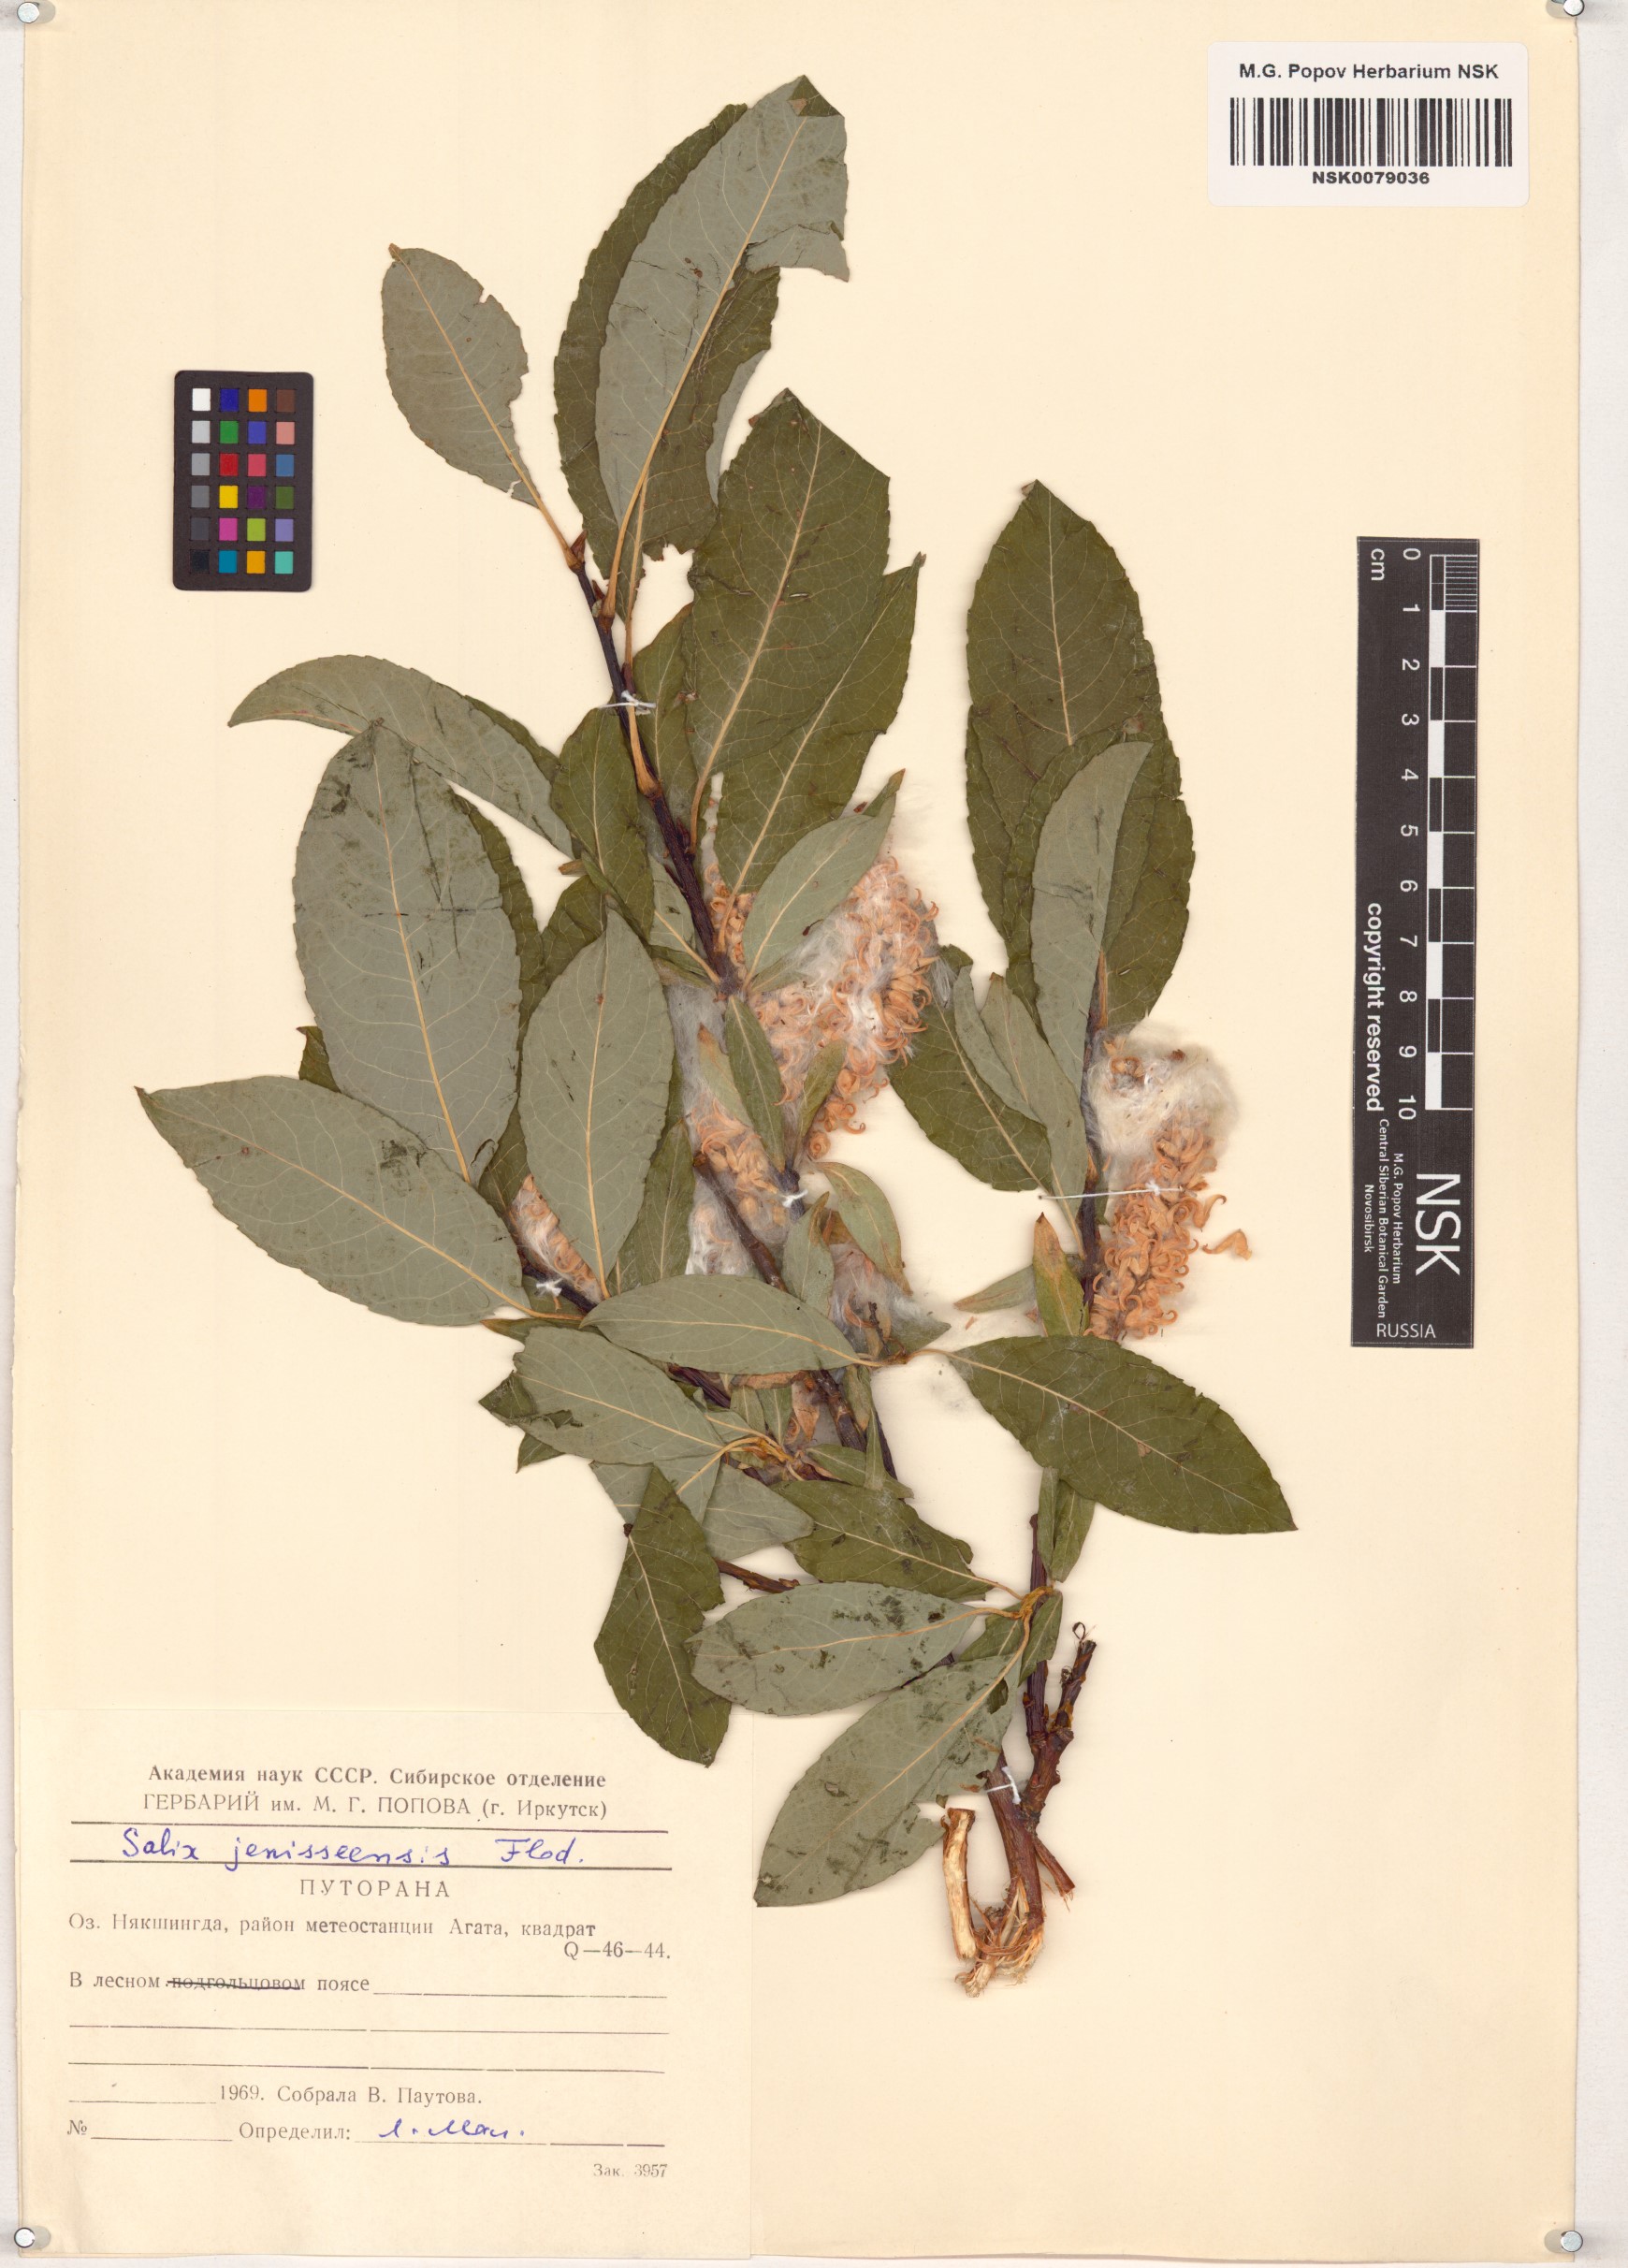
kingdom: Plantae
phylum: Tracheophyta
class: Magnoliopsida
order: Malpighiales
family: Salicaceae
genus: Salix
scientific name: Salix jenisseensis
